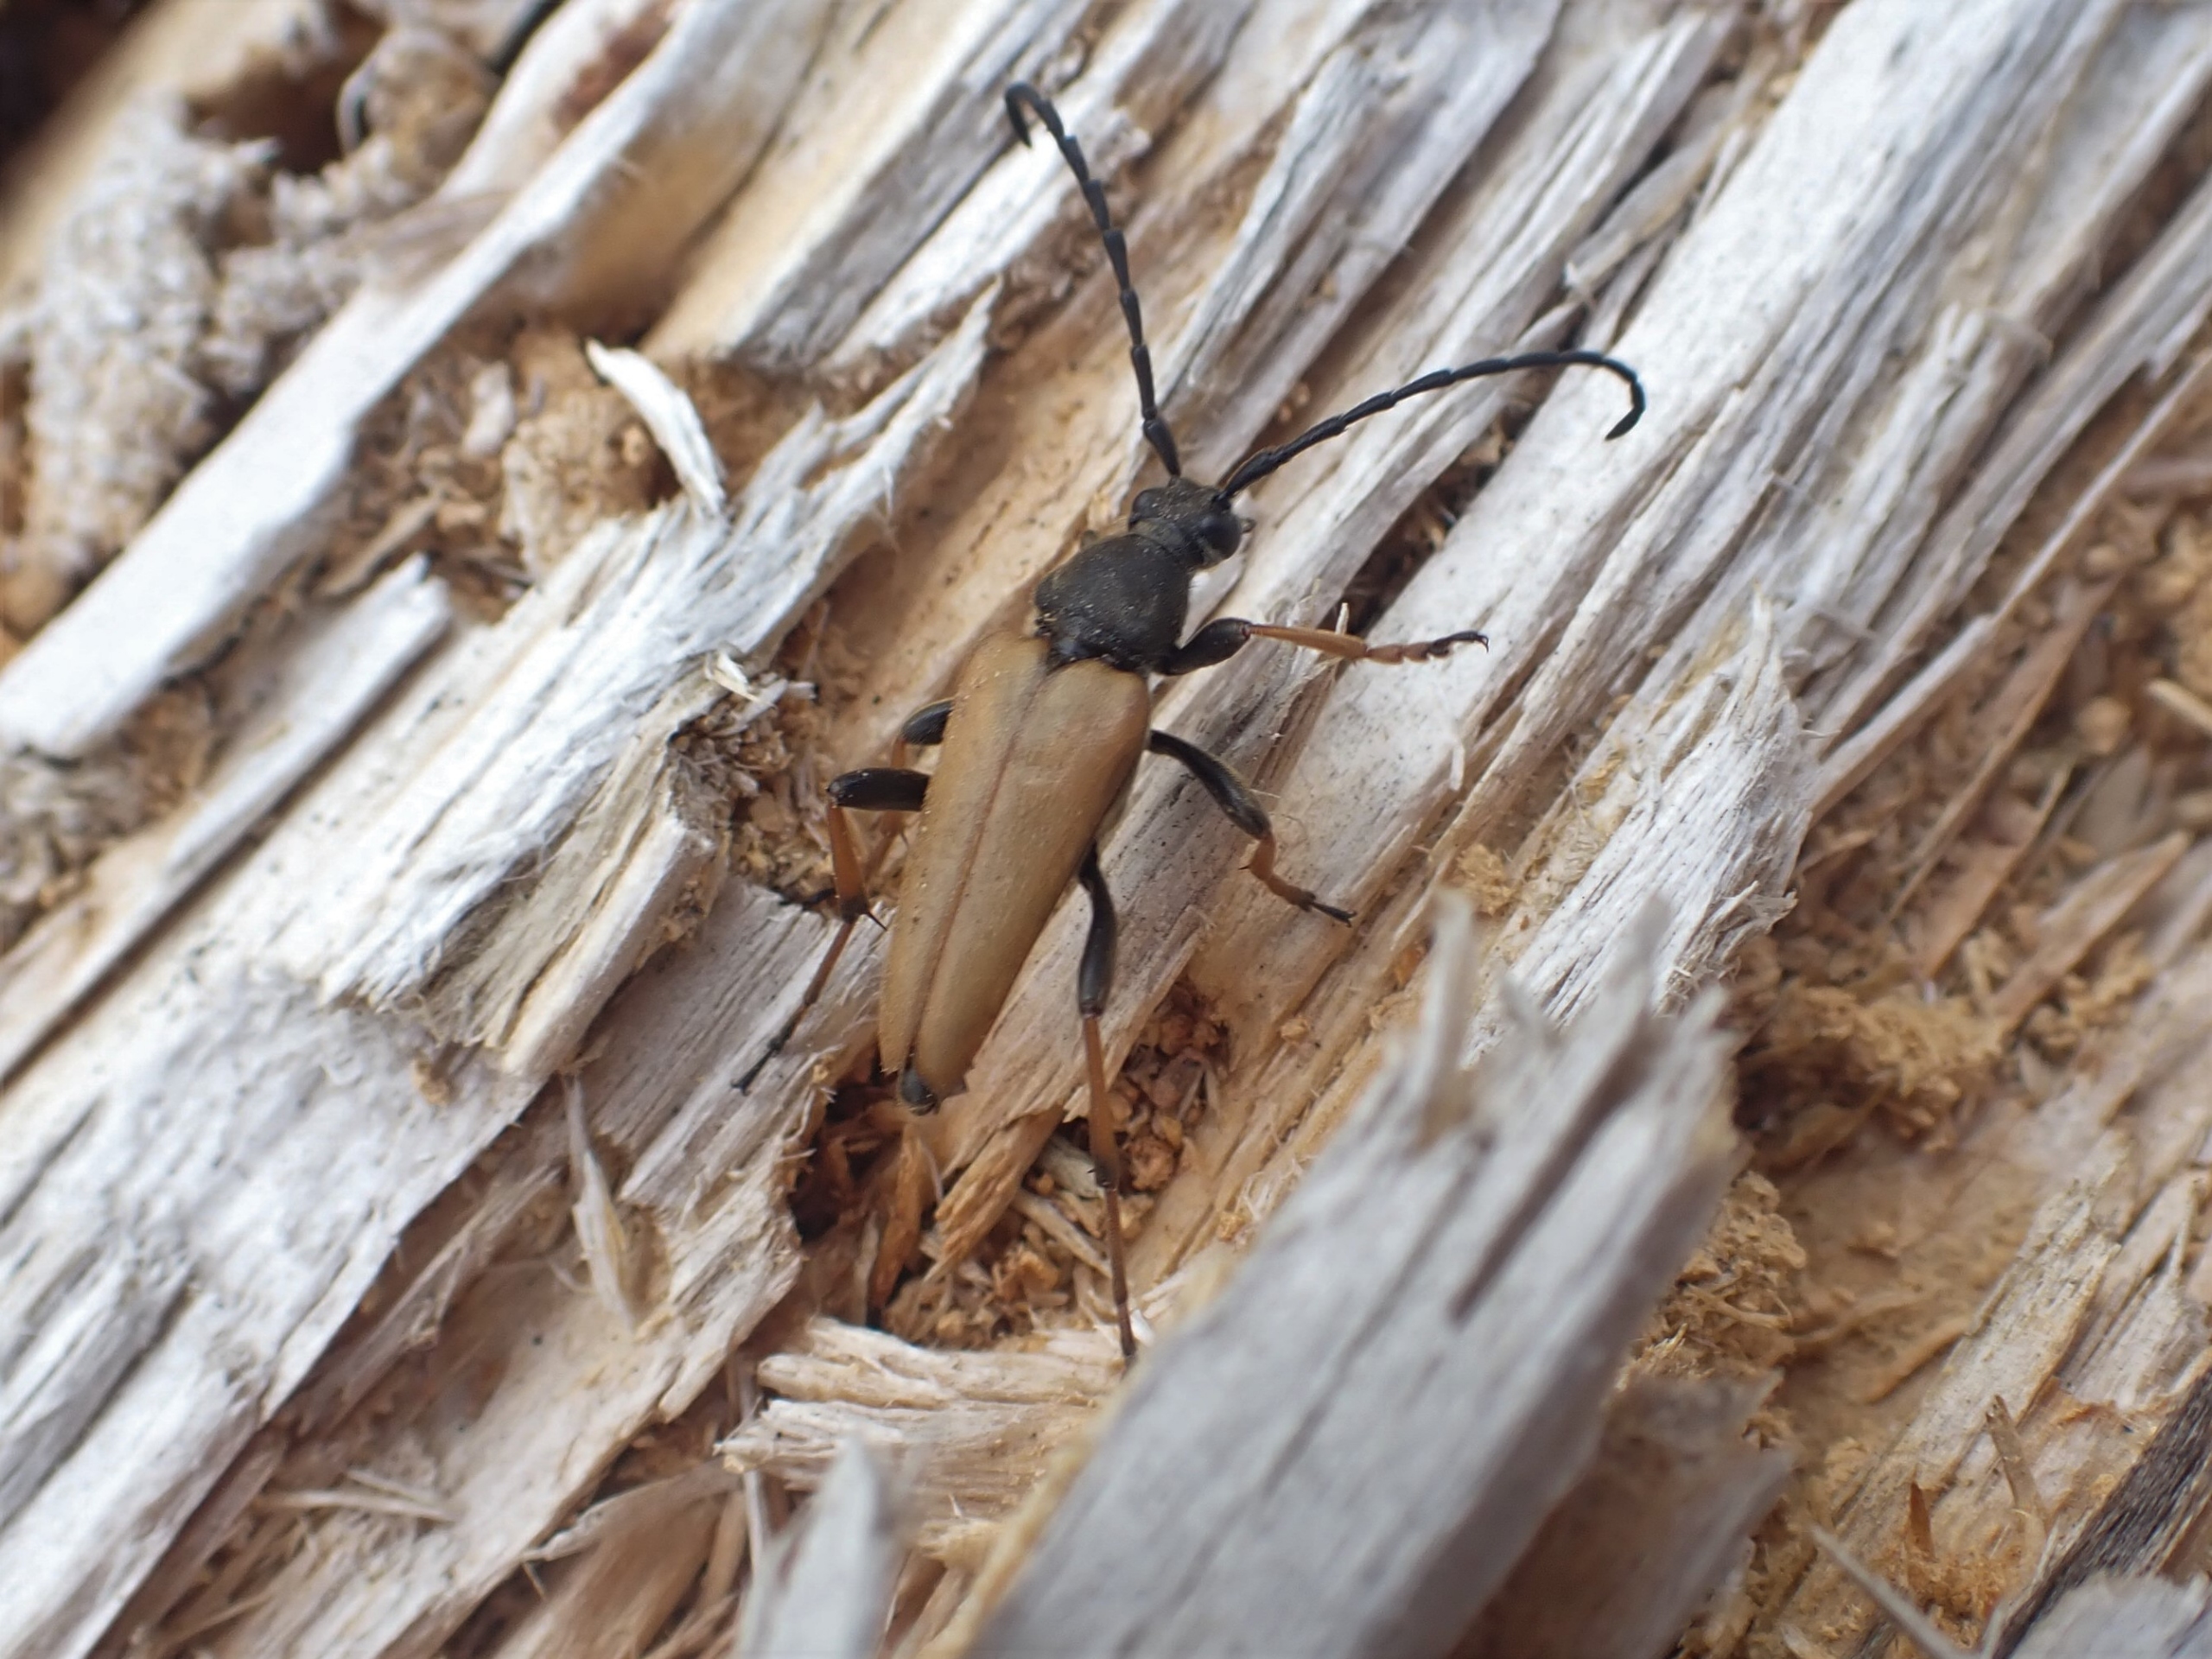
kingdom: Animalia
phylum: Arthropoda
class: Insecta
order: Coleoptera
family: Cerambycidae
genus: Stictoleptura
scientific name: Stictoleptura rubra
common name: Rød blomsterbuk
